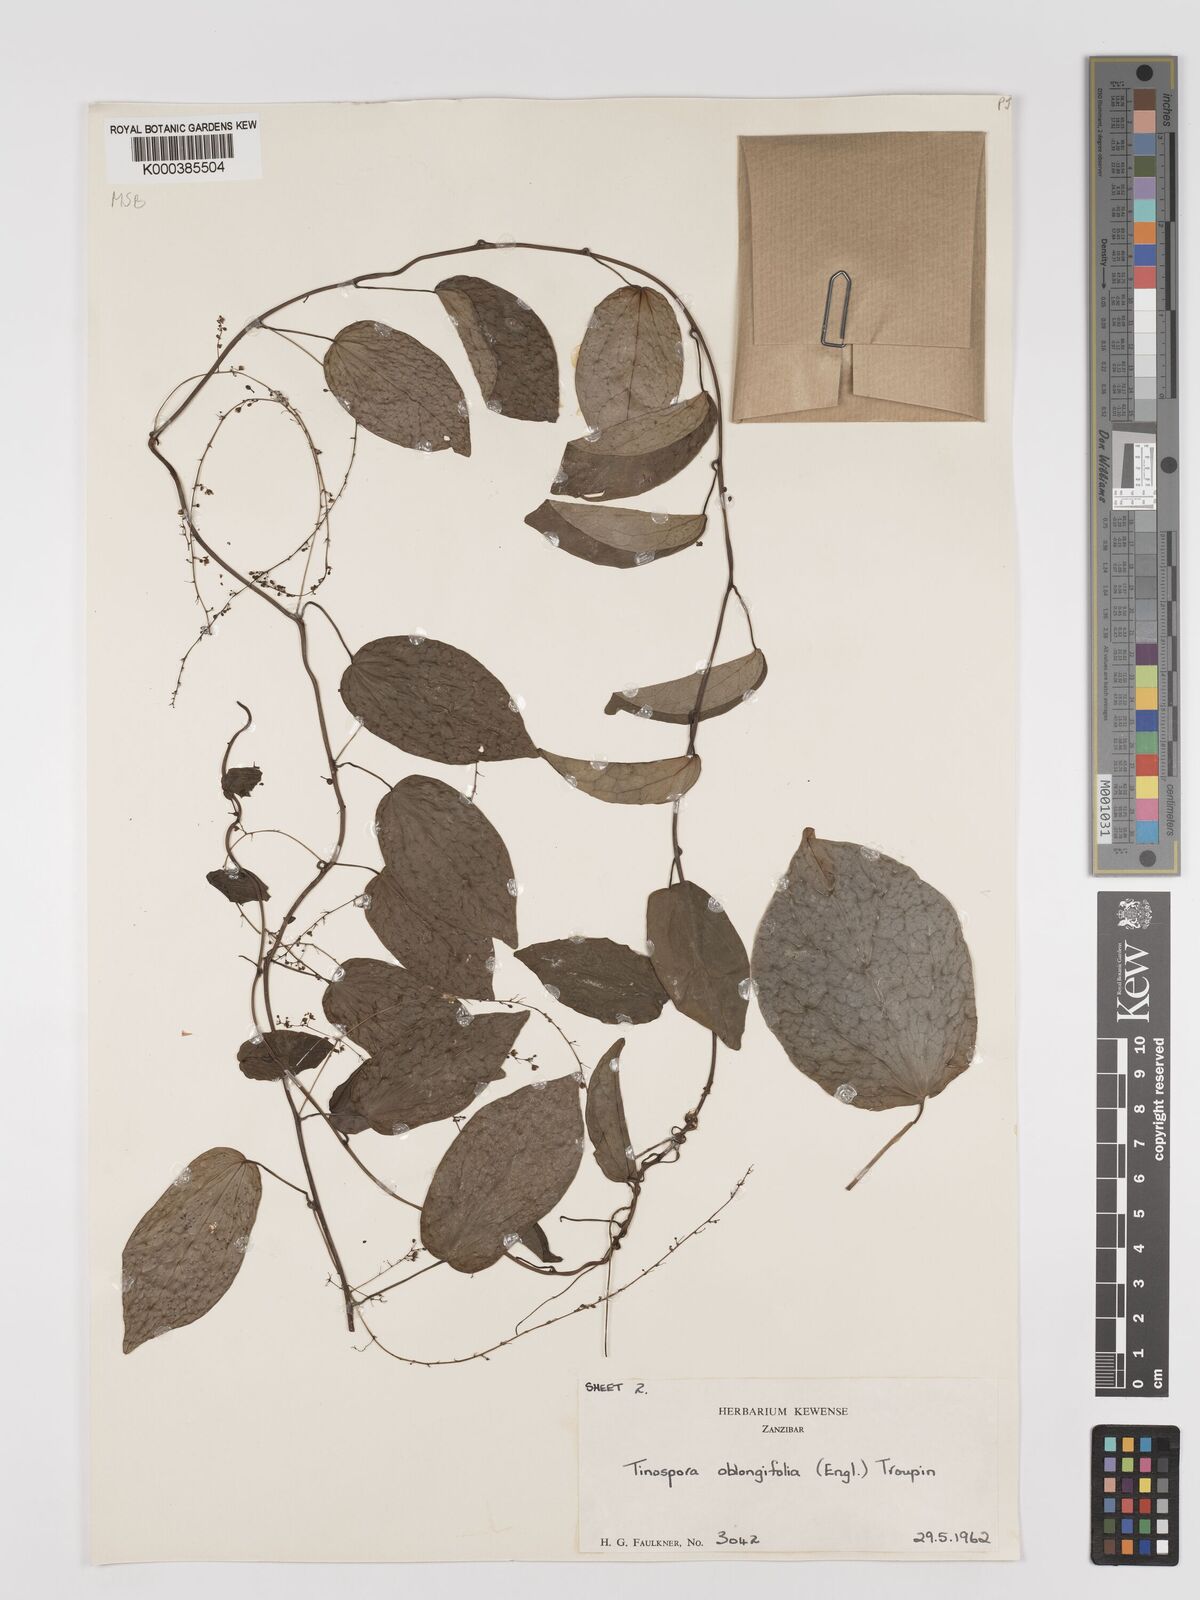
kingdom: Plantae
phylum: Tracheophyta
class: Magnoliopsida
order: Ranunculales
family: Menispermaceae
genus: Tinospora
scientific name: Tinospora oblongifolia
